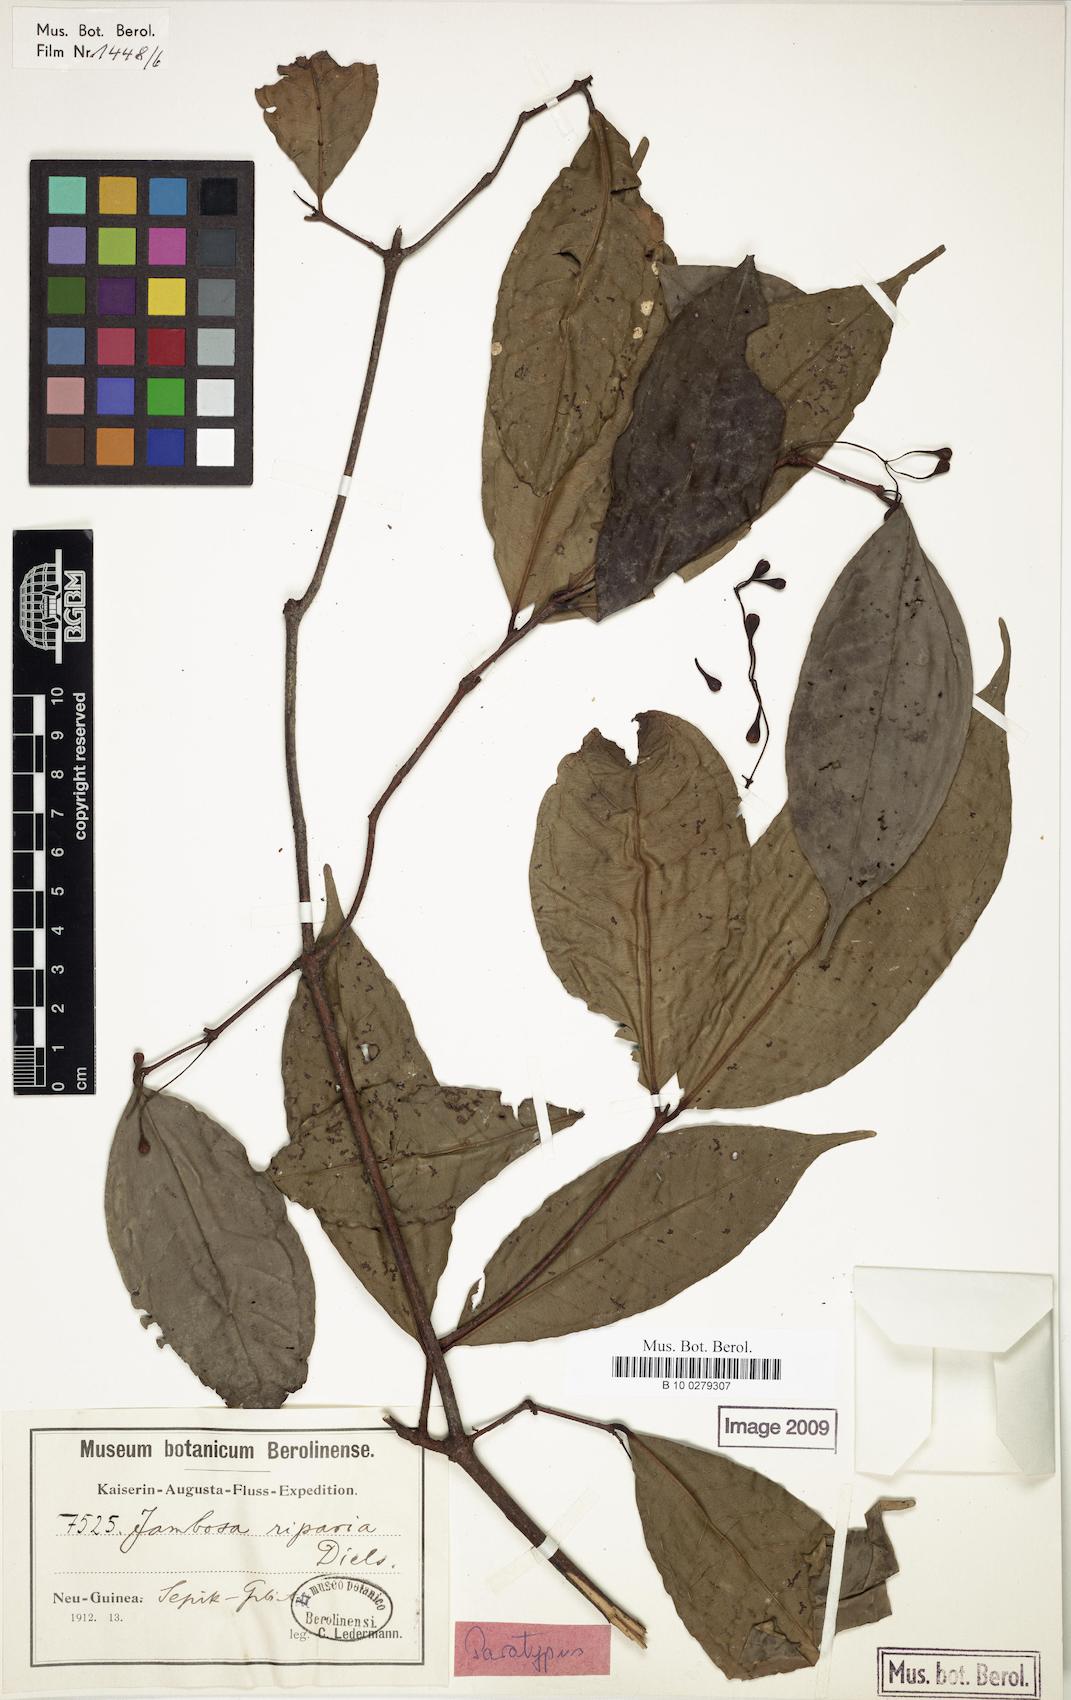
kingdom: Plantae
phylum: Tracheophyta
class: Magnoliopsida
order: Myrtales
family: Myrtaceae
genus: Syzygium
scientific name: Syzygium riparium
